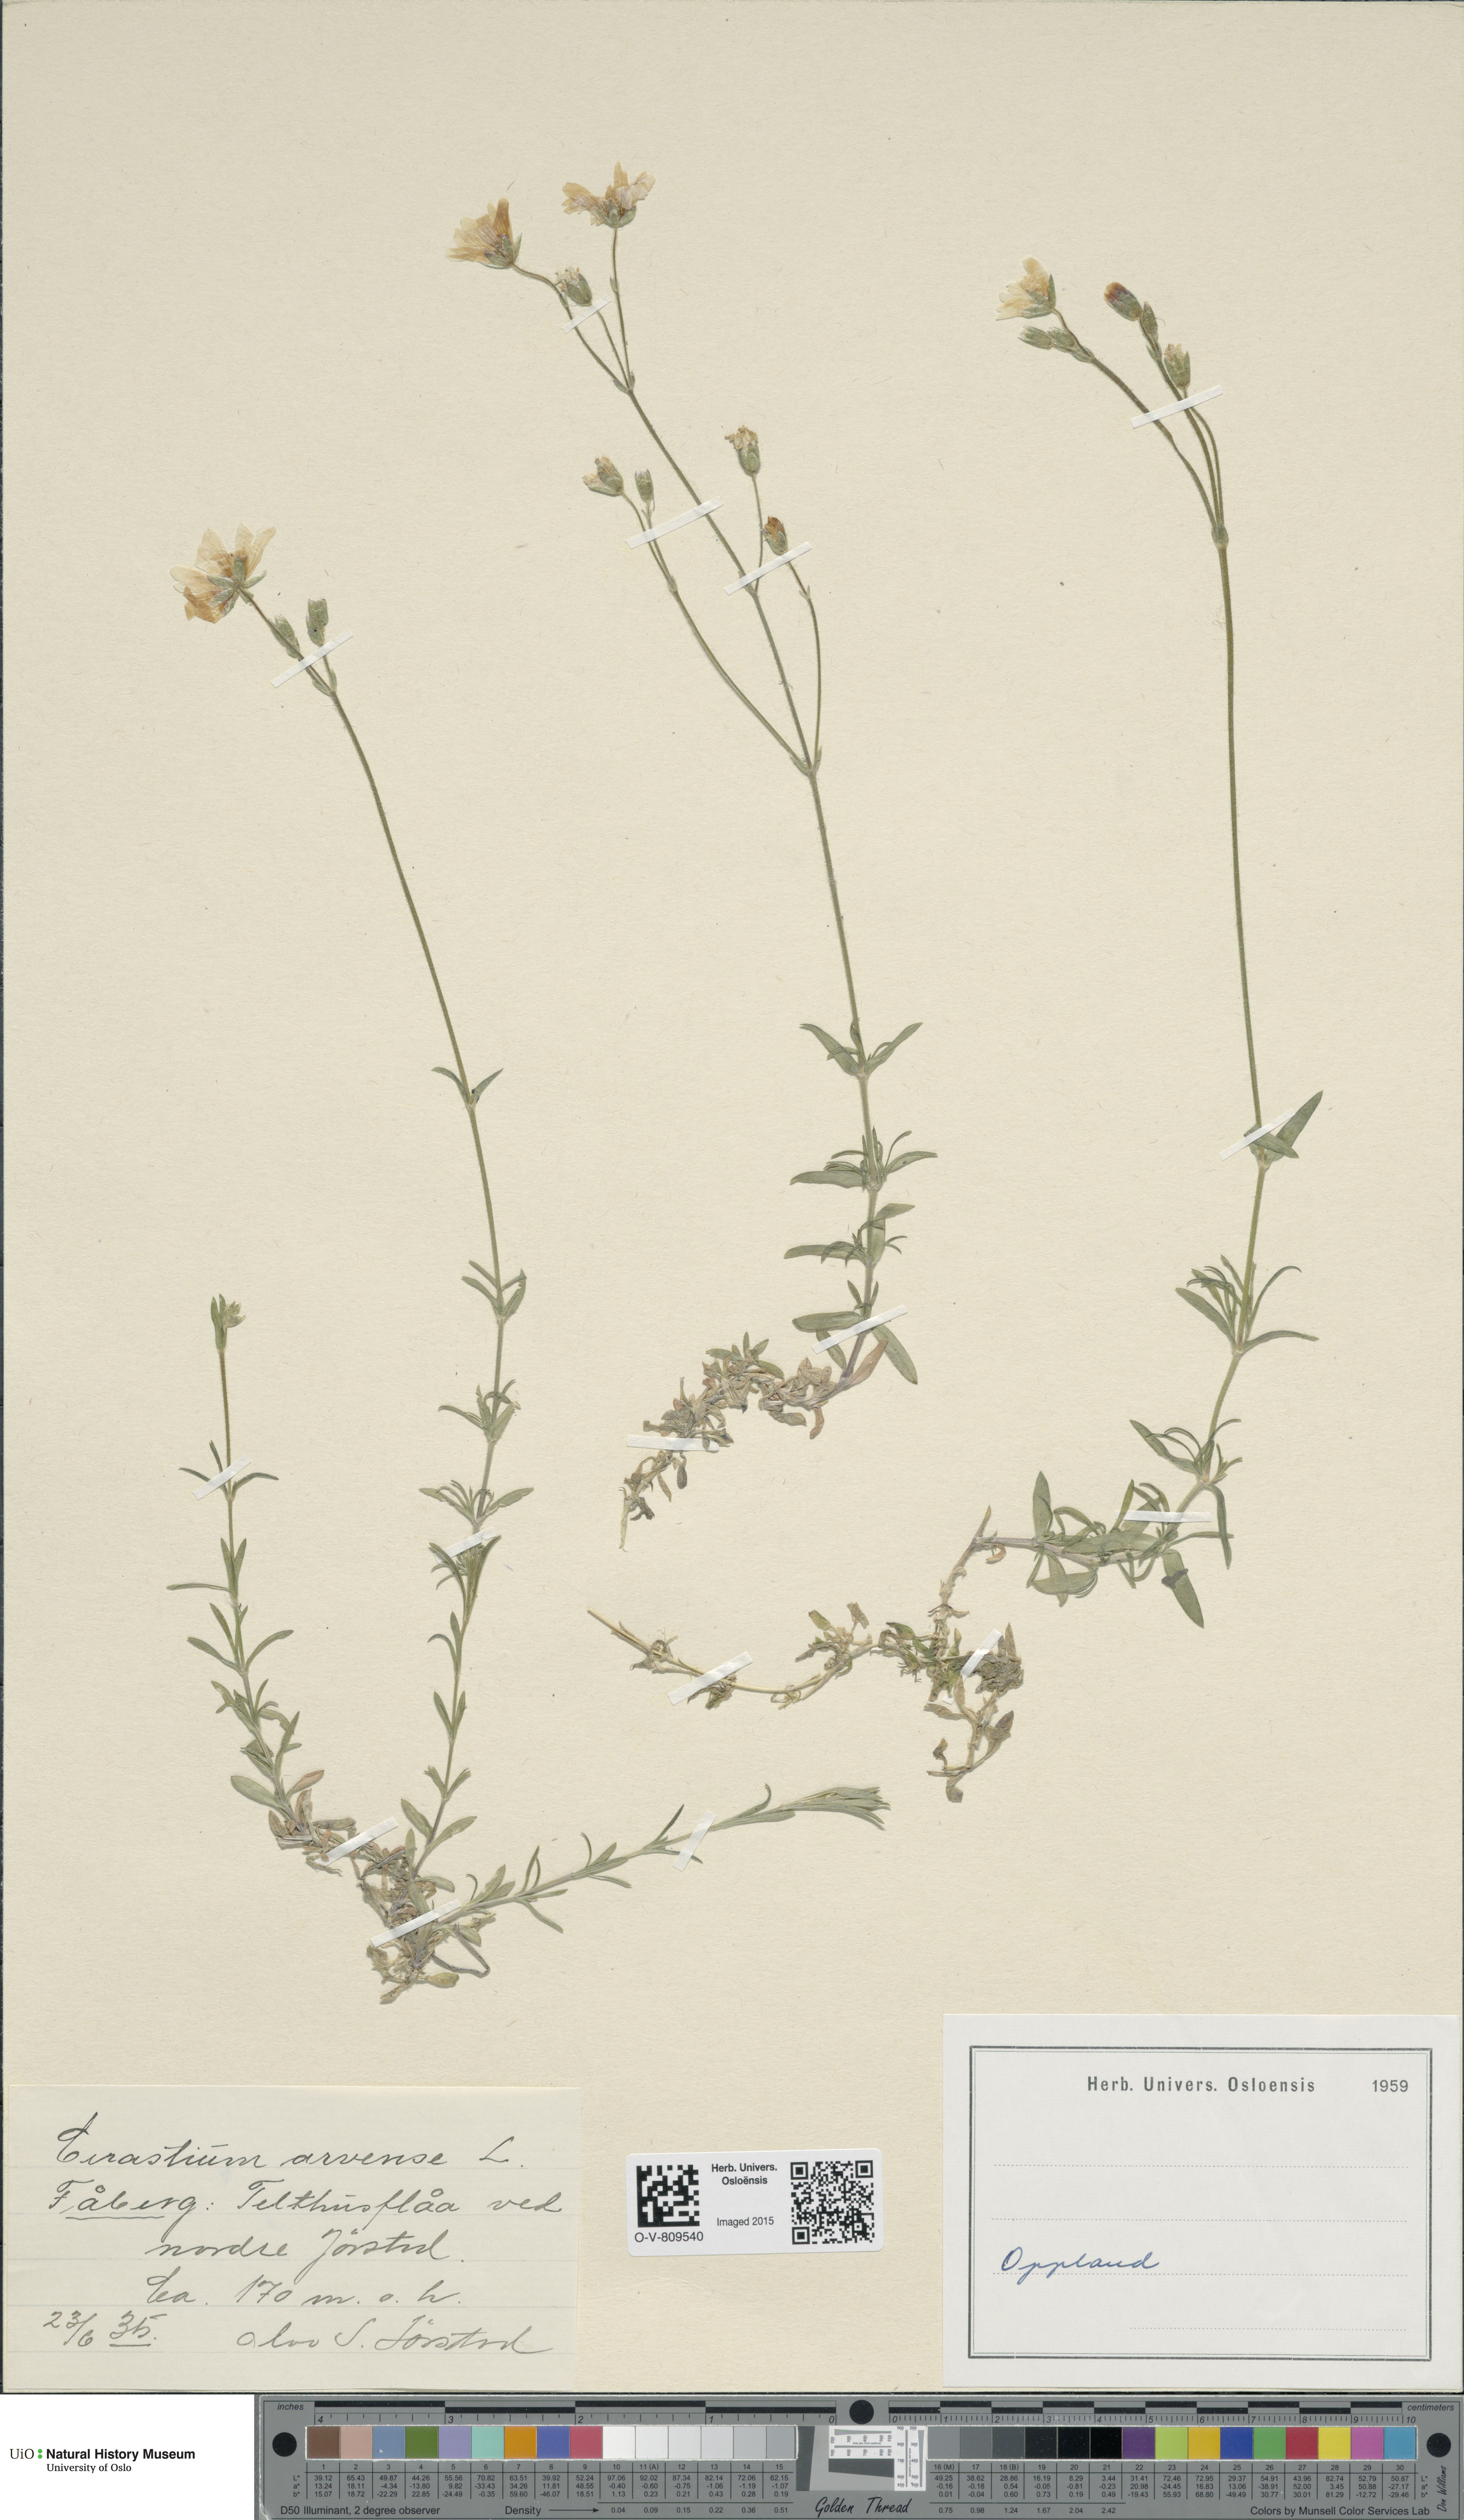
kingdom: Plantae
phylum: Tracheophyta
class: Magnoliopsida
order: Caryophyllales
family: Caryophyllaceae
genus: Cerastium
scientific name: Cerastium arvense
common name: Field mouse-ear
